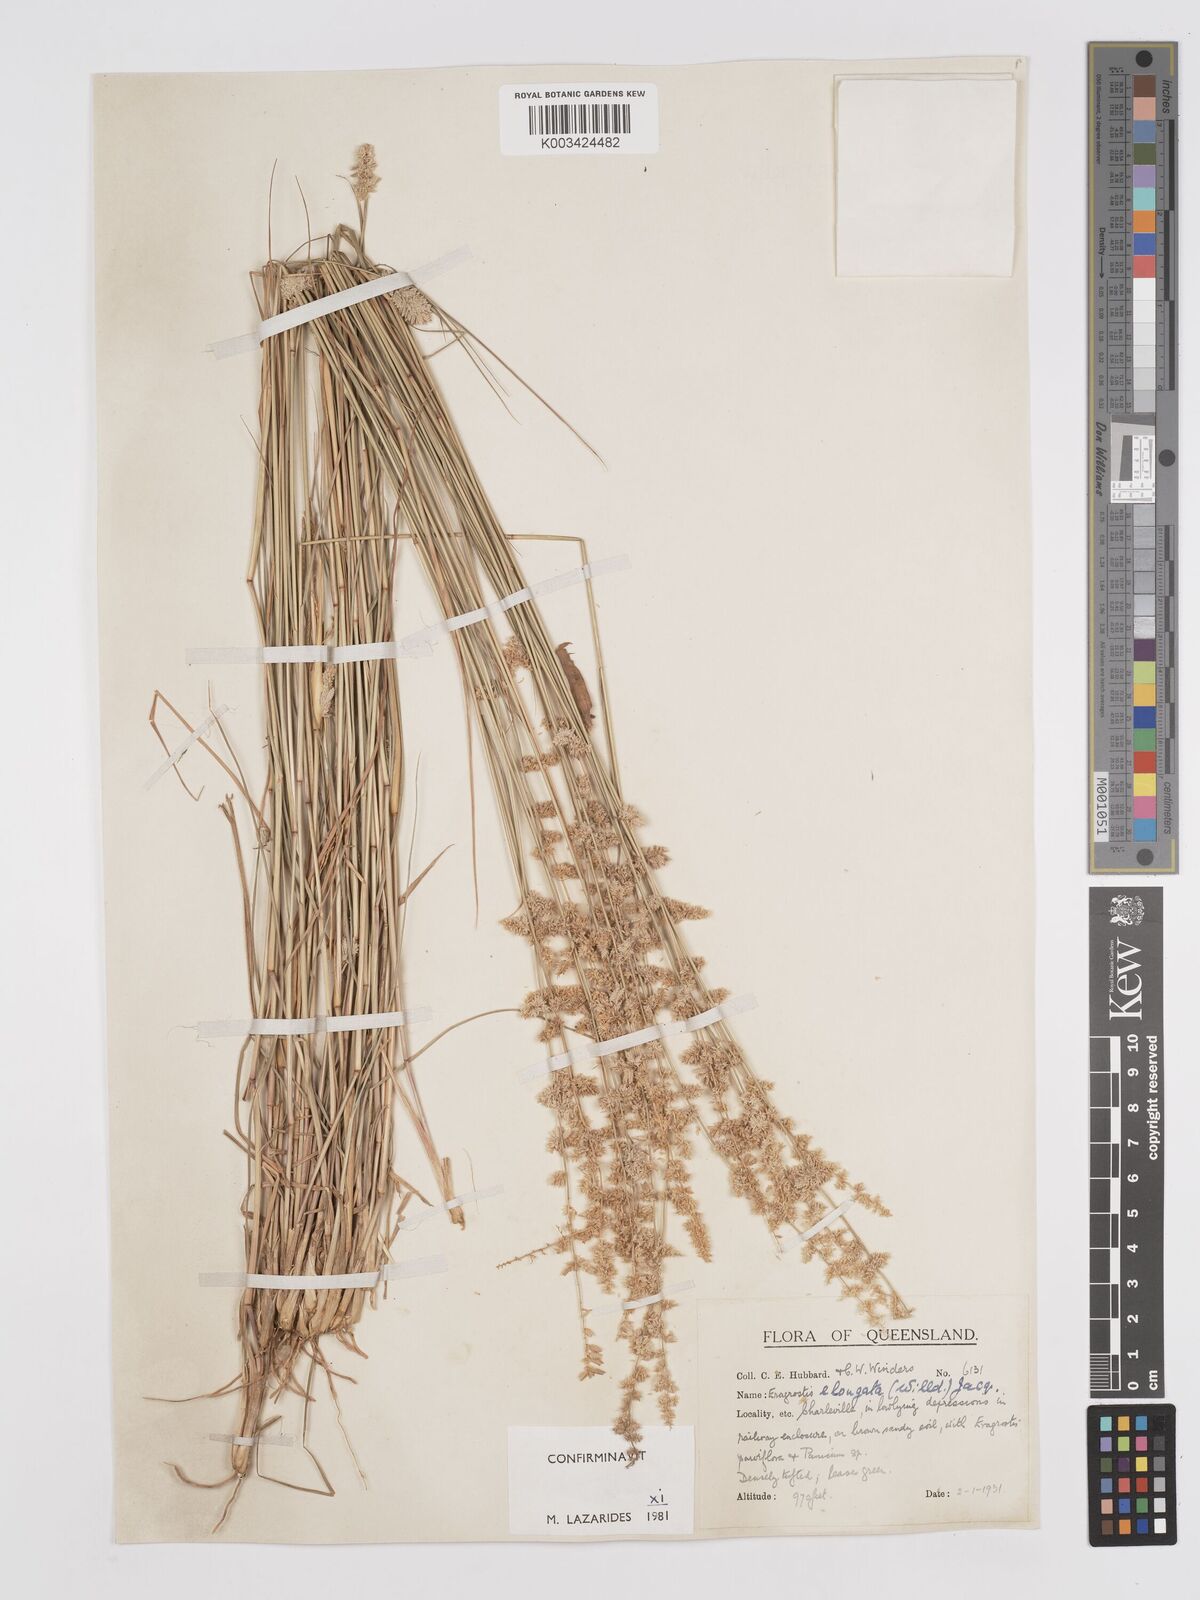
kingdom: Plantae
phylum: Tracheophyta
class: Liliopsida
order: Poales
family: Poaceae
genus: Eragrostis
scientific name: Eragrostis elongata
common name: Long lovegrass
